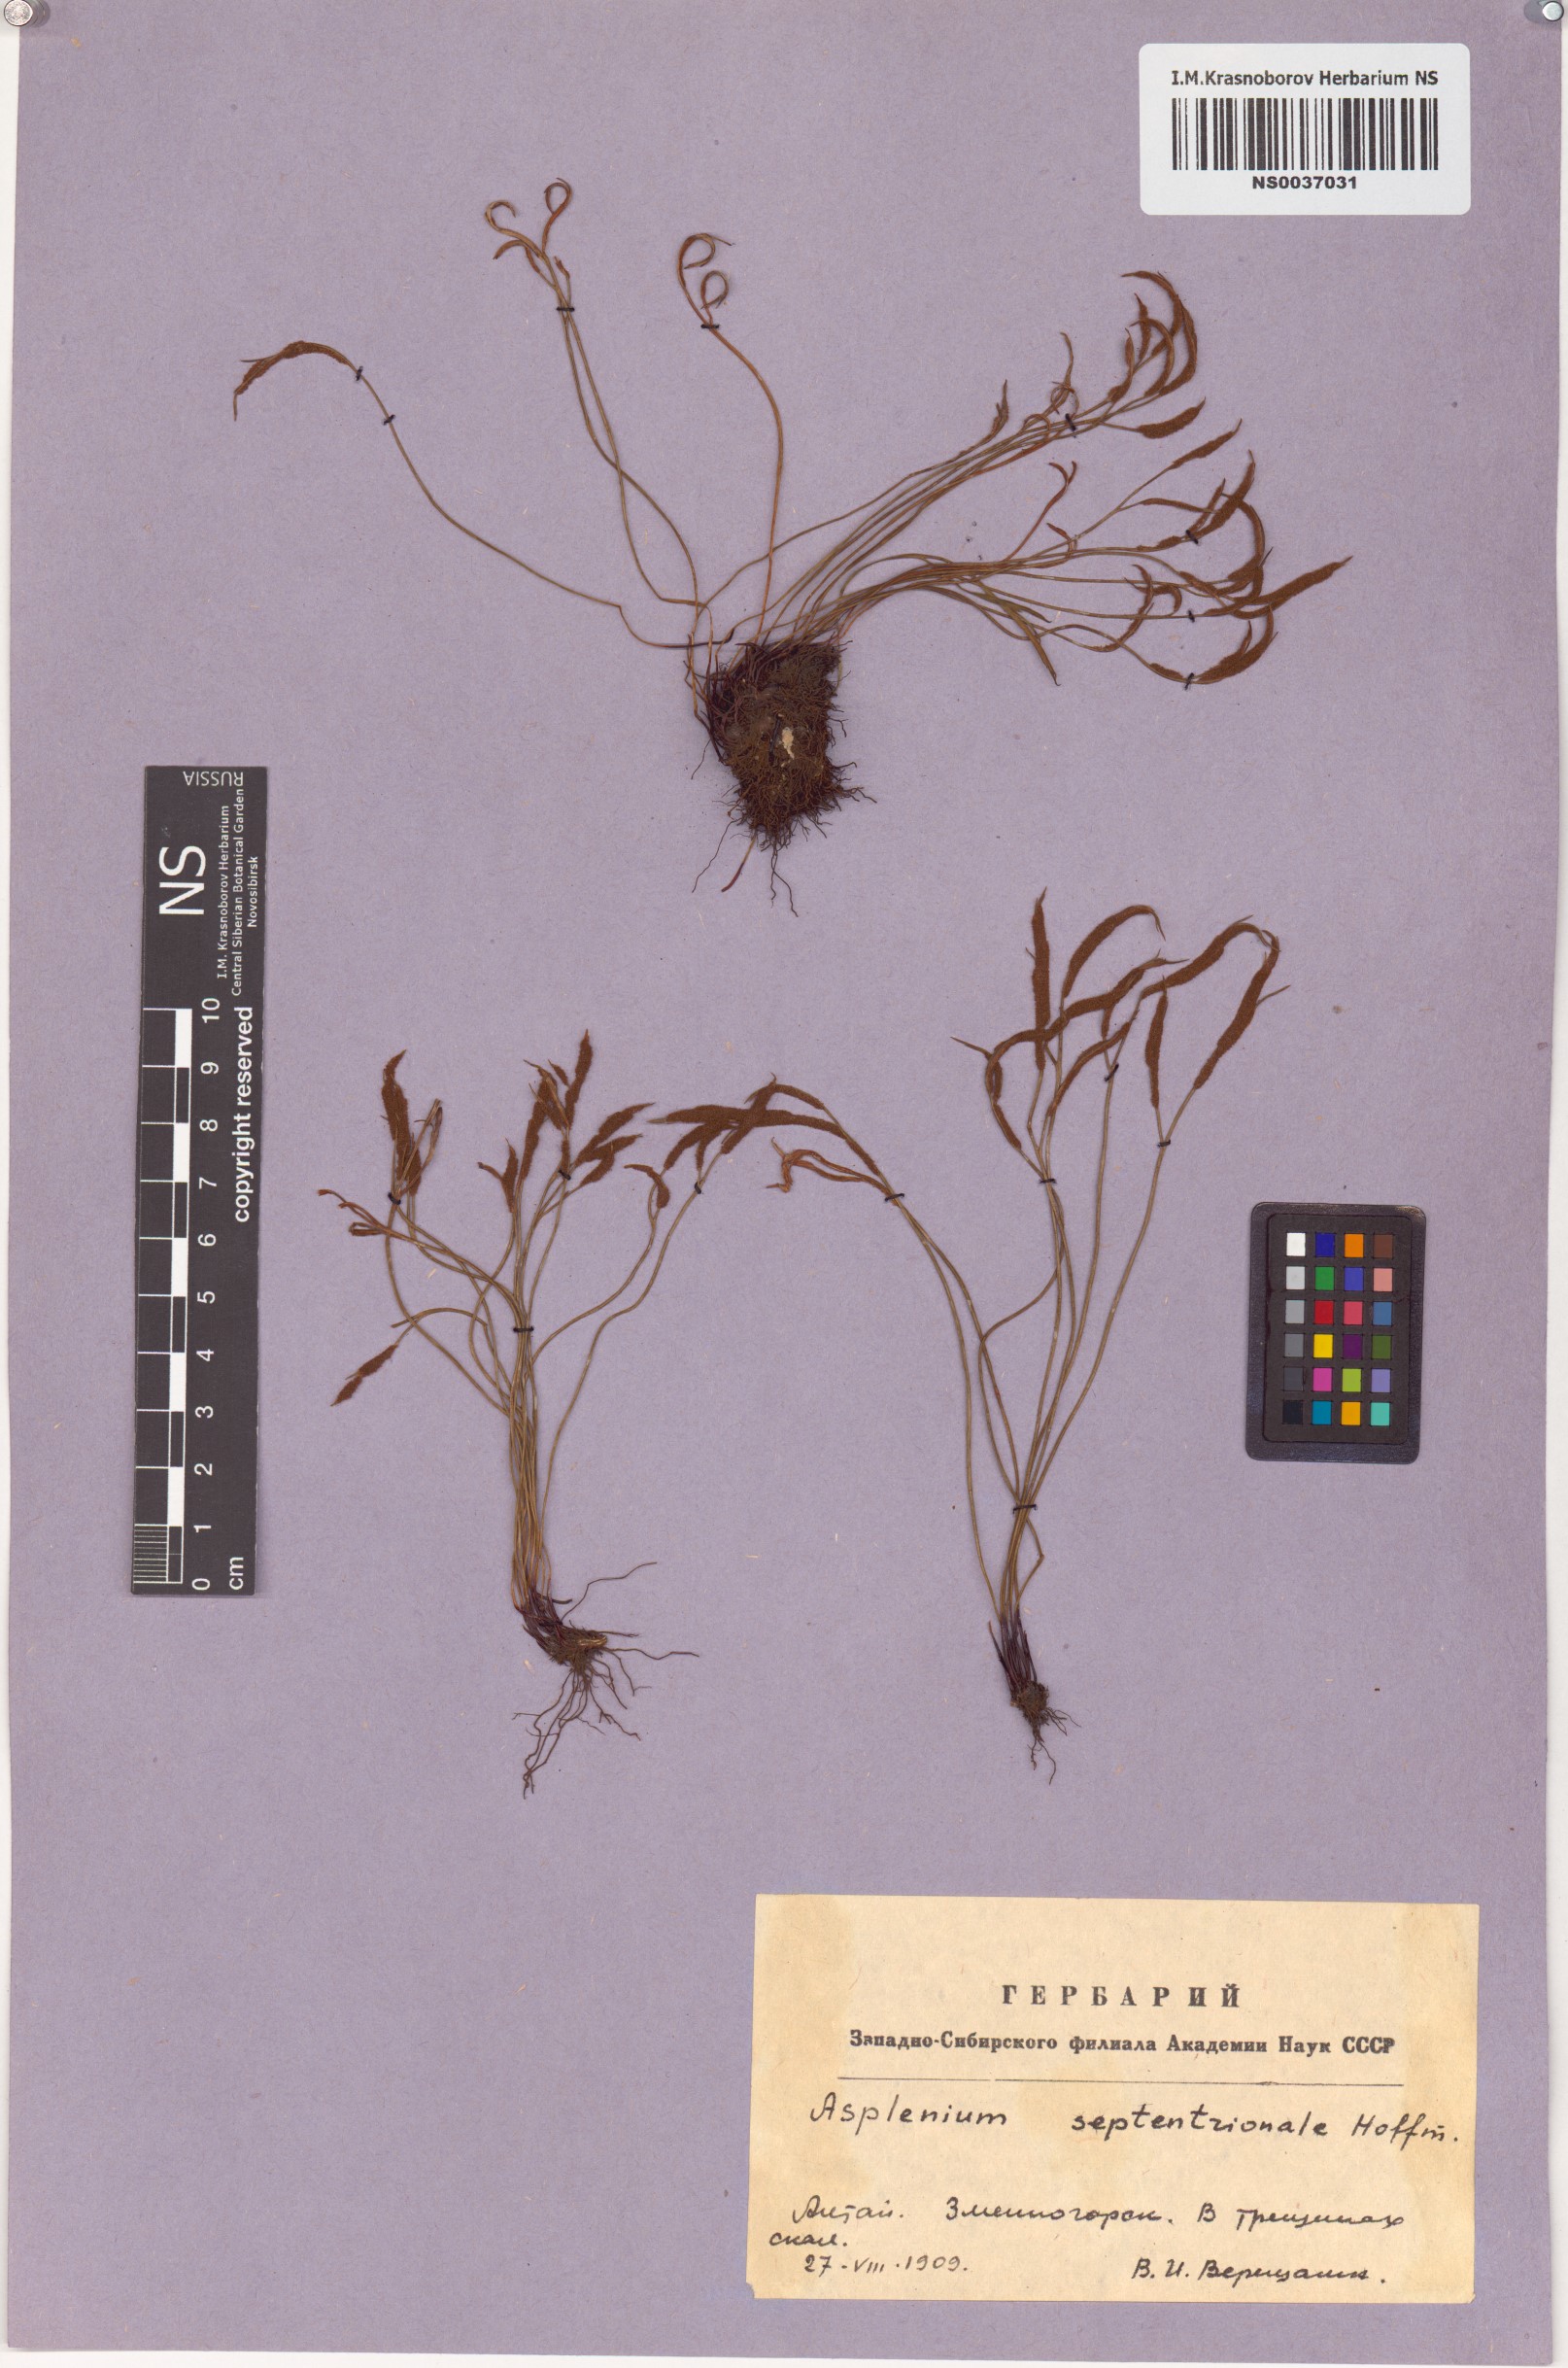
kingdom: Plantae
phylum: Tracheophyta
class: Polypodiopsida
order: Polypodiales
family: Aspleniaceae
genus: Asplenium
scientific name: Asplenium septentrionale
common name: Forked spleenwort
